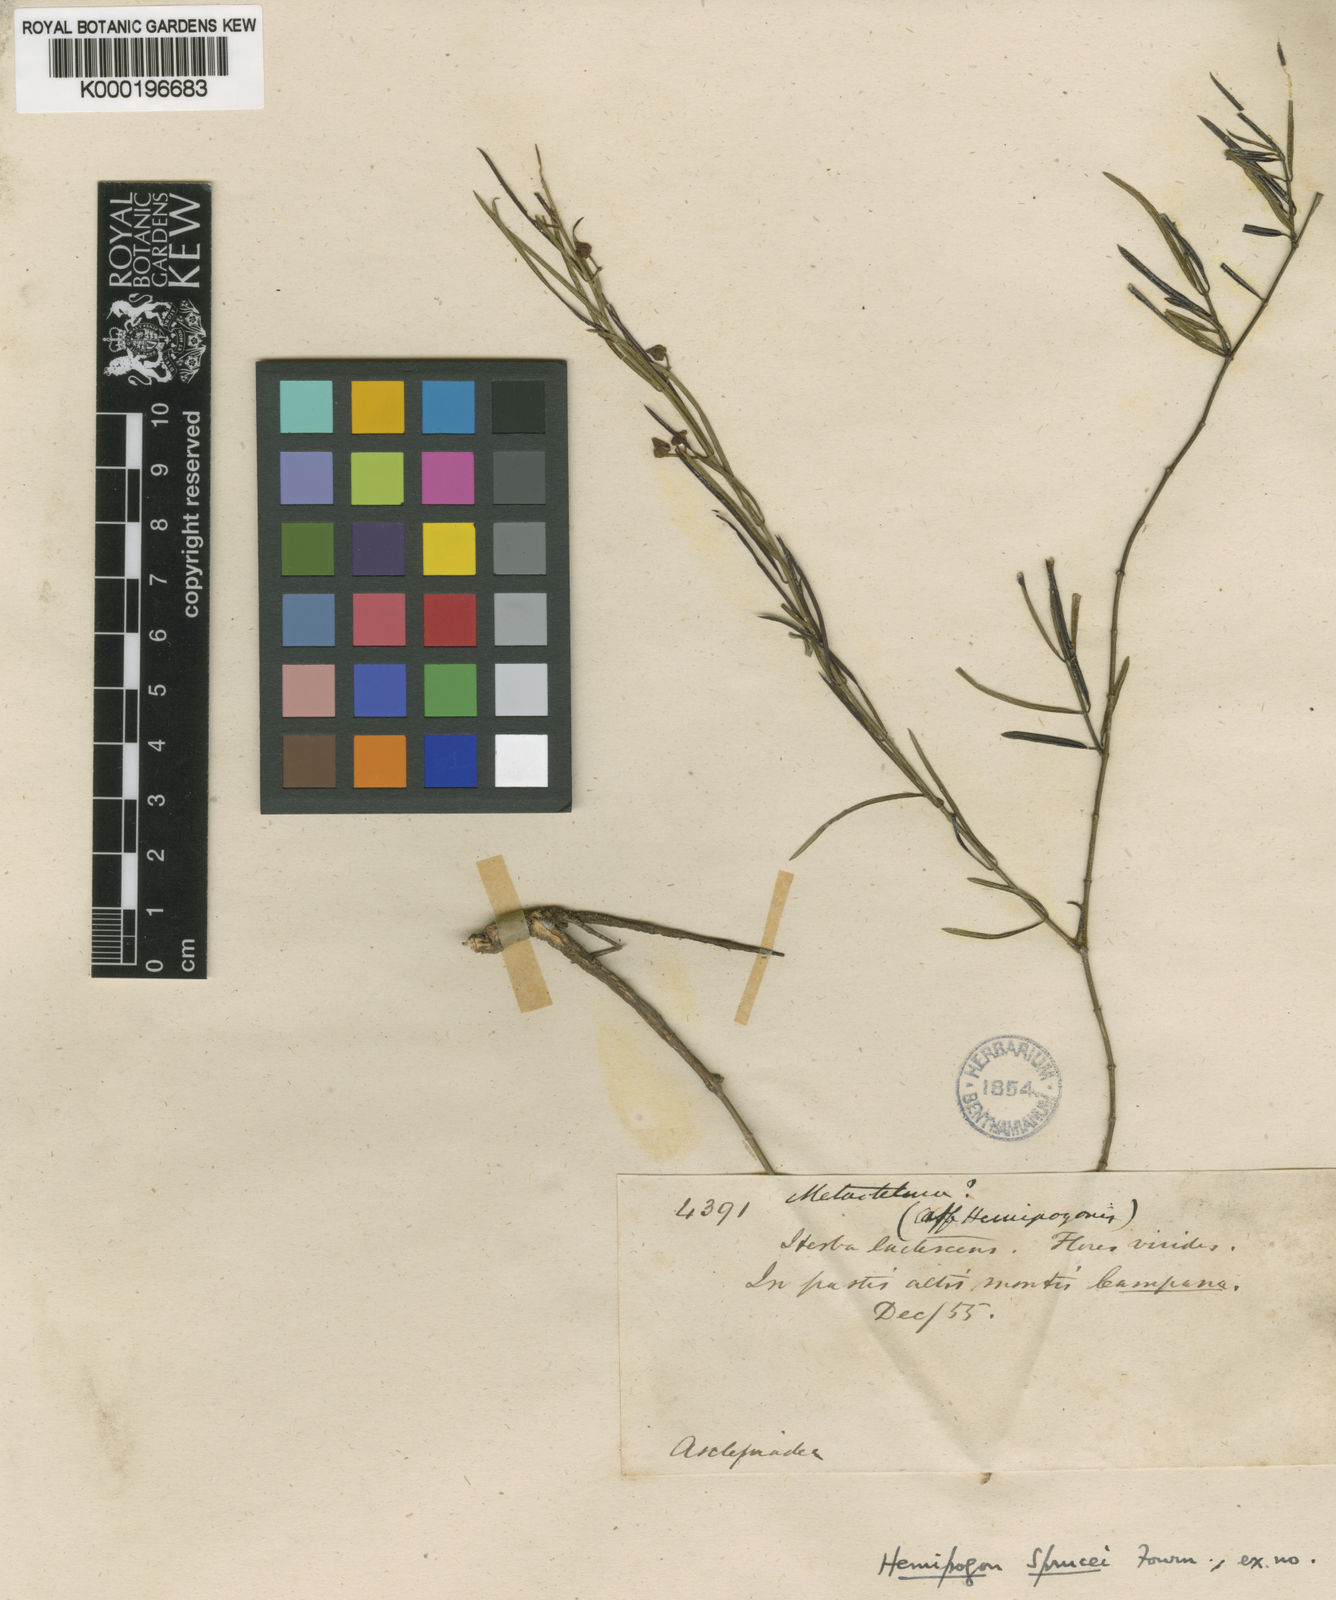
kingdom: Plantae
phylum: Tracheophyta
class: Magnoliopsida
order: Gentianales
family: Apocynaceae
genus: Hemipogon
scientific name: Hemipogon sprucei
